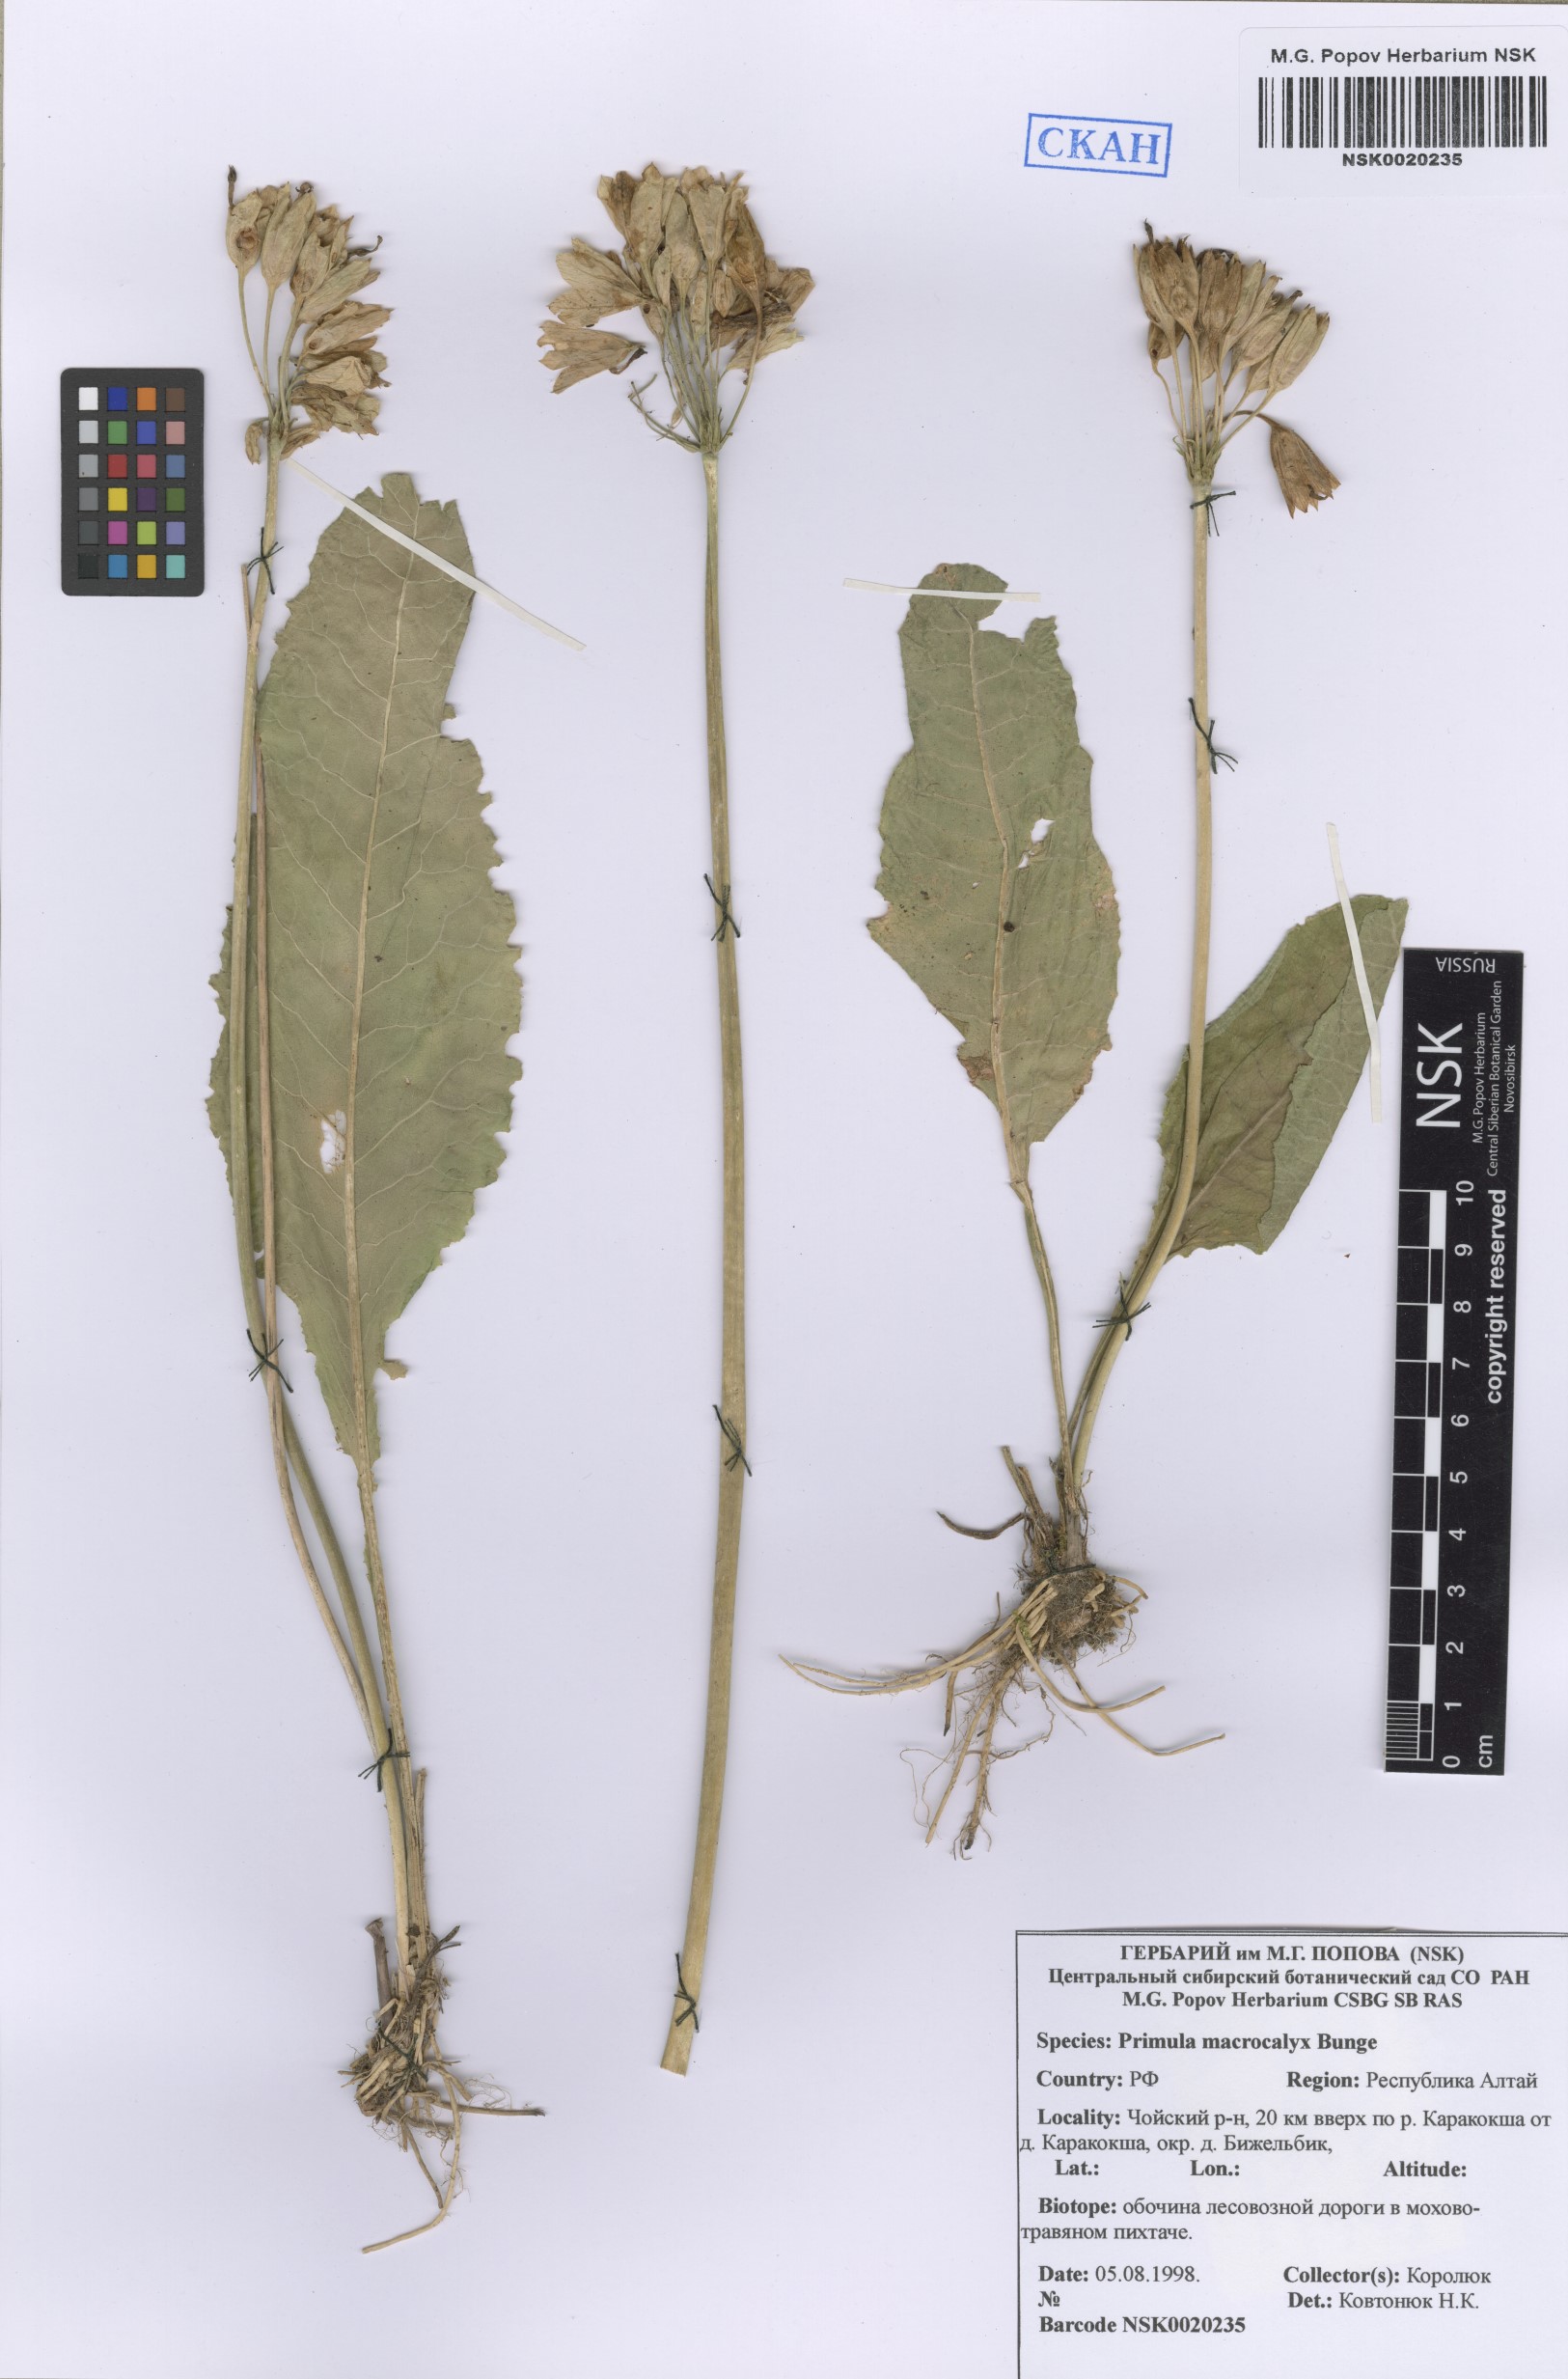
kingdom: Plantae
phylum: Tracheophyta
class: Magnoliopsida
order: Ericales
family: Primulaceae
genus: Primula
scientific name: Primula veris
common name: Cowslip
